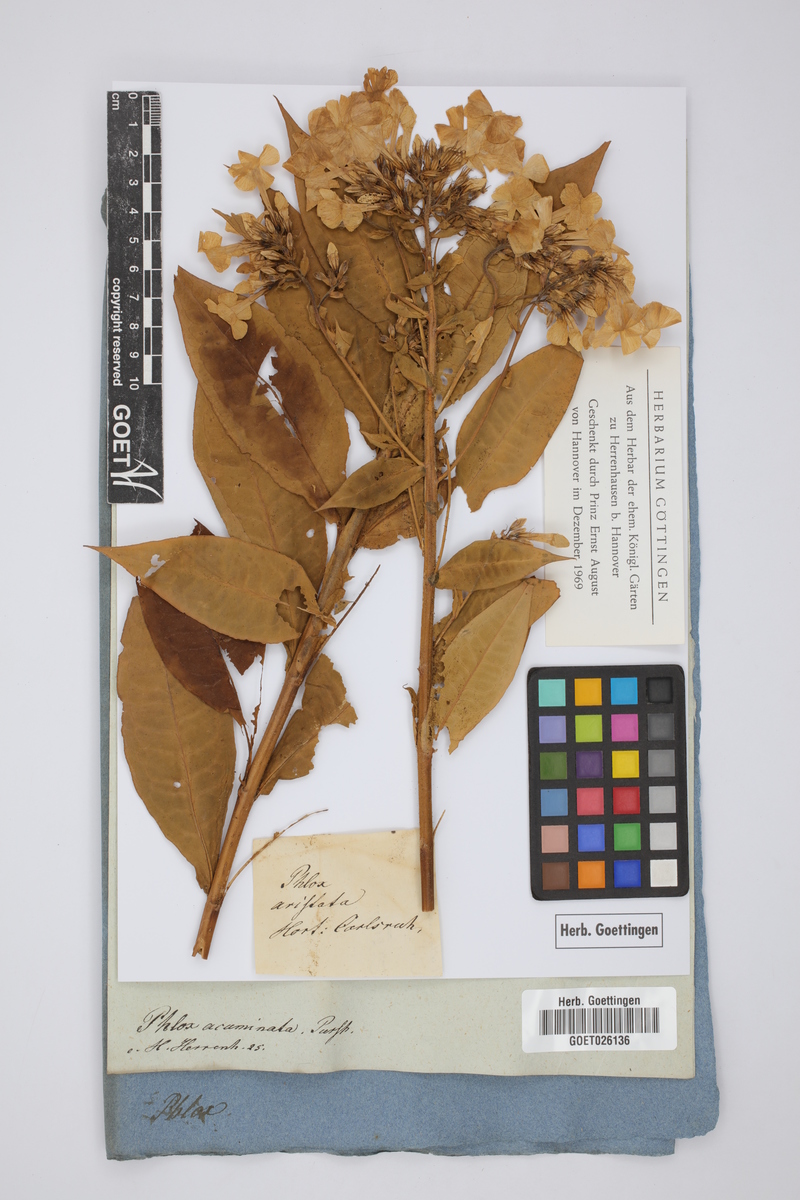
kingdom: Plantae
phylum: Tracheophyta
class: Magnoliopsida
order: Ericales
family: Polemoniaceae
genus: Phlox
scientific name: Phlox paniculata
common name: Fall phlox
